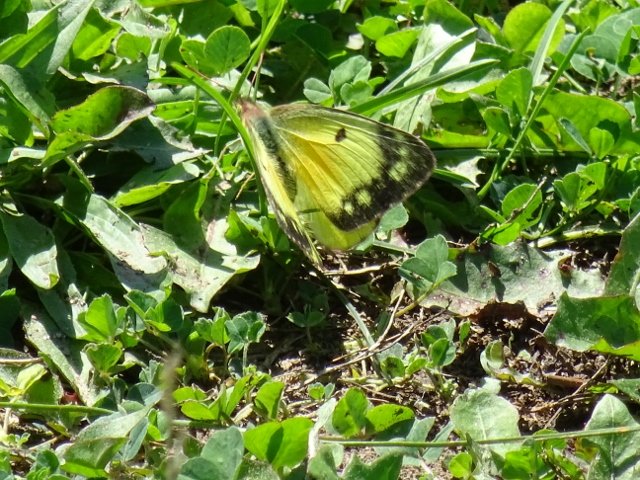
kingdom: Animalia
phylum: Arthropoda
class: Insecta
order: Lepidoptera
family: Pieridae
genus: Colias
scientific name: Colias eurytheme
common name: Orange Sulphur
